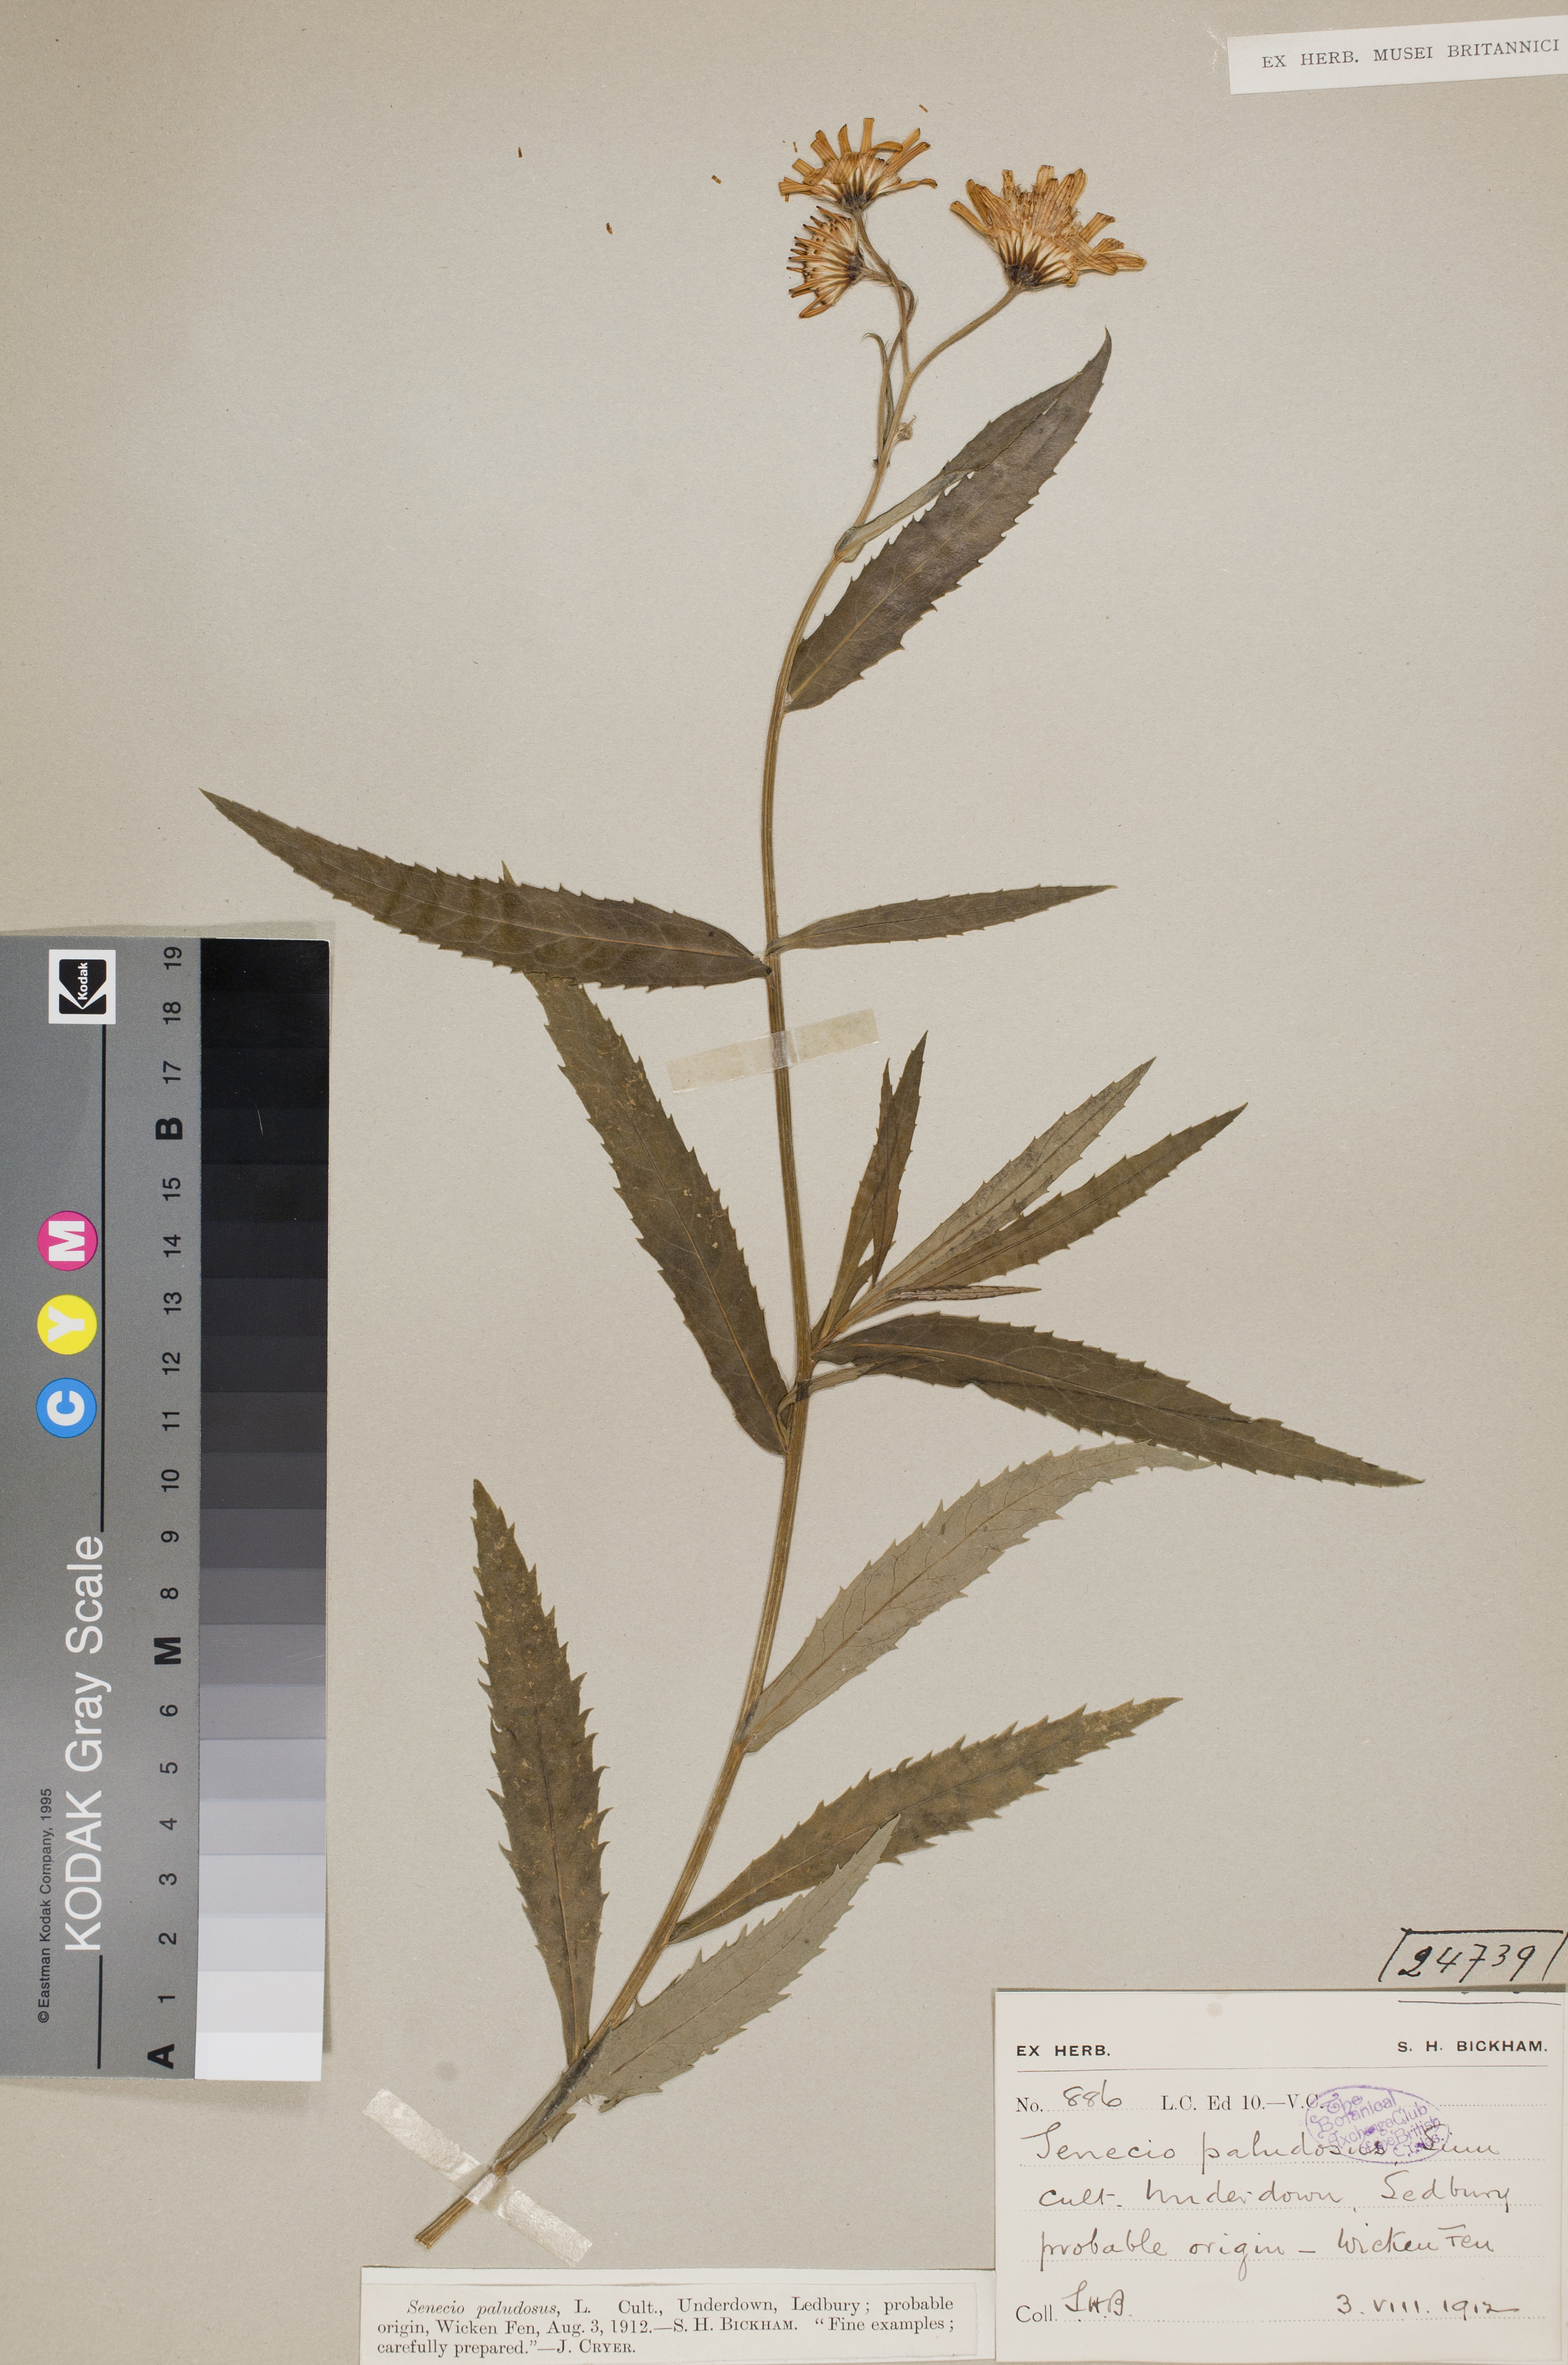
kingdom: Plantae
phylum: Tracheophyta
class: Magnoliopsida
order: Asterales
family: Asteraceae
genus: Jacobaea
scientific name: Jacobaea paludosa
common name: Fen ragwort
